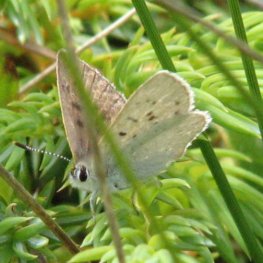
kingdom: Animalia
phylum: Arthropoda
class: Insecta
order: Lepidoptera
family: Sesiidae
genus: Sesia
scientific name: Sesia Lycaena epixanthe
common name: Bog Copper
